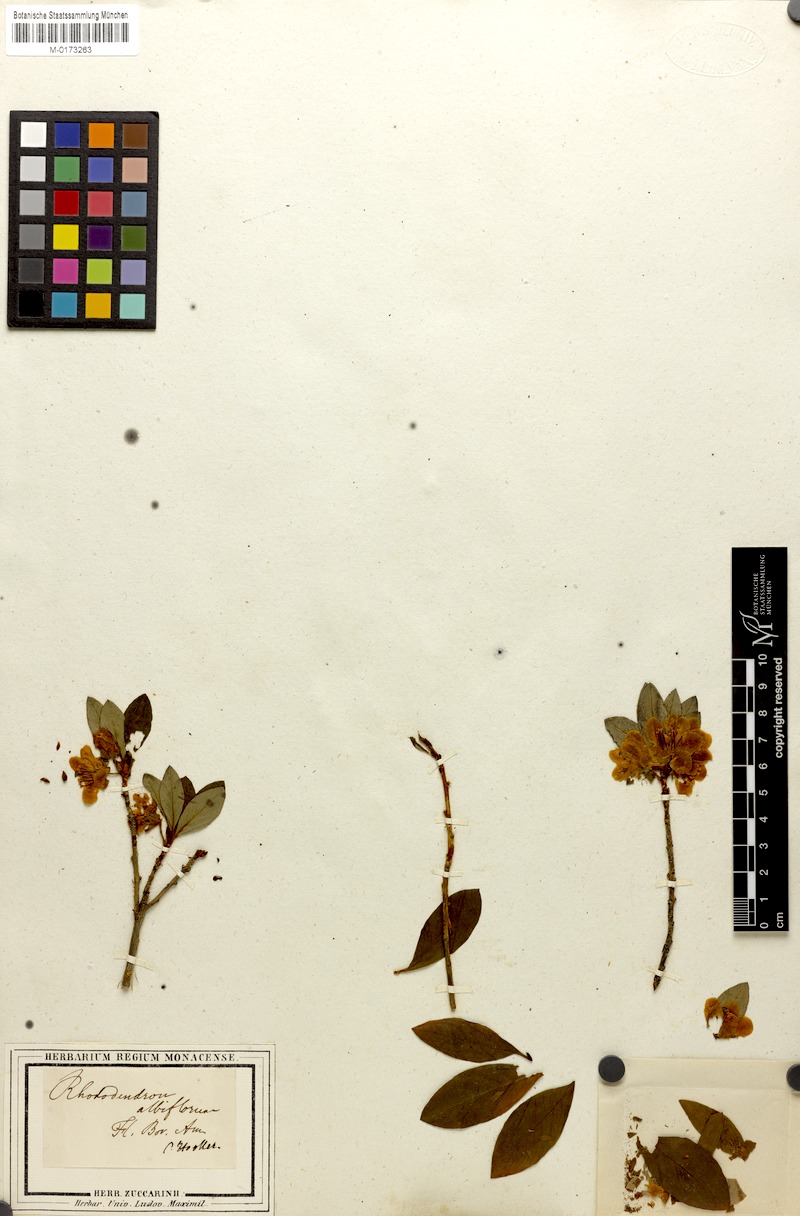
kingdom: Plantae
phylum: Tracheophyta
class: Magnoliopsida
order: Ericales
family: Ericaceae
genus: Rhododendron
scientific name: Rhododendron albiflorum
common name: White rhododendron
